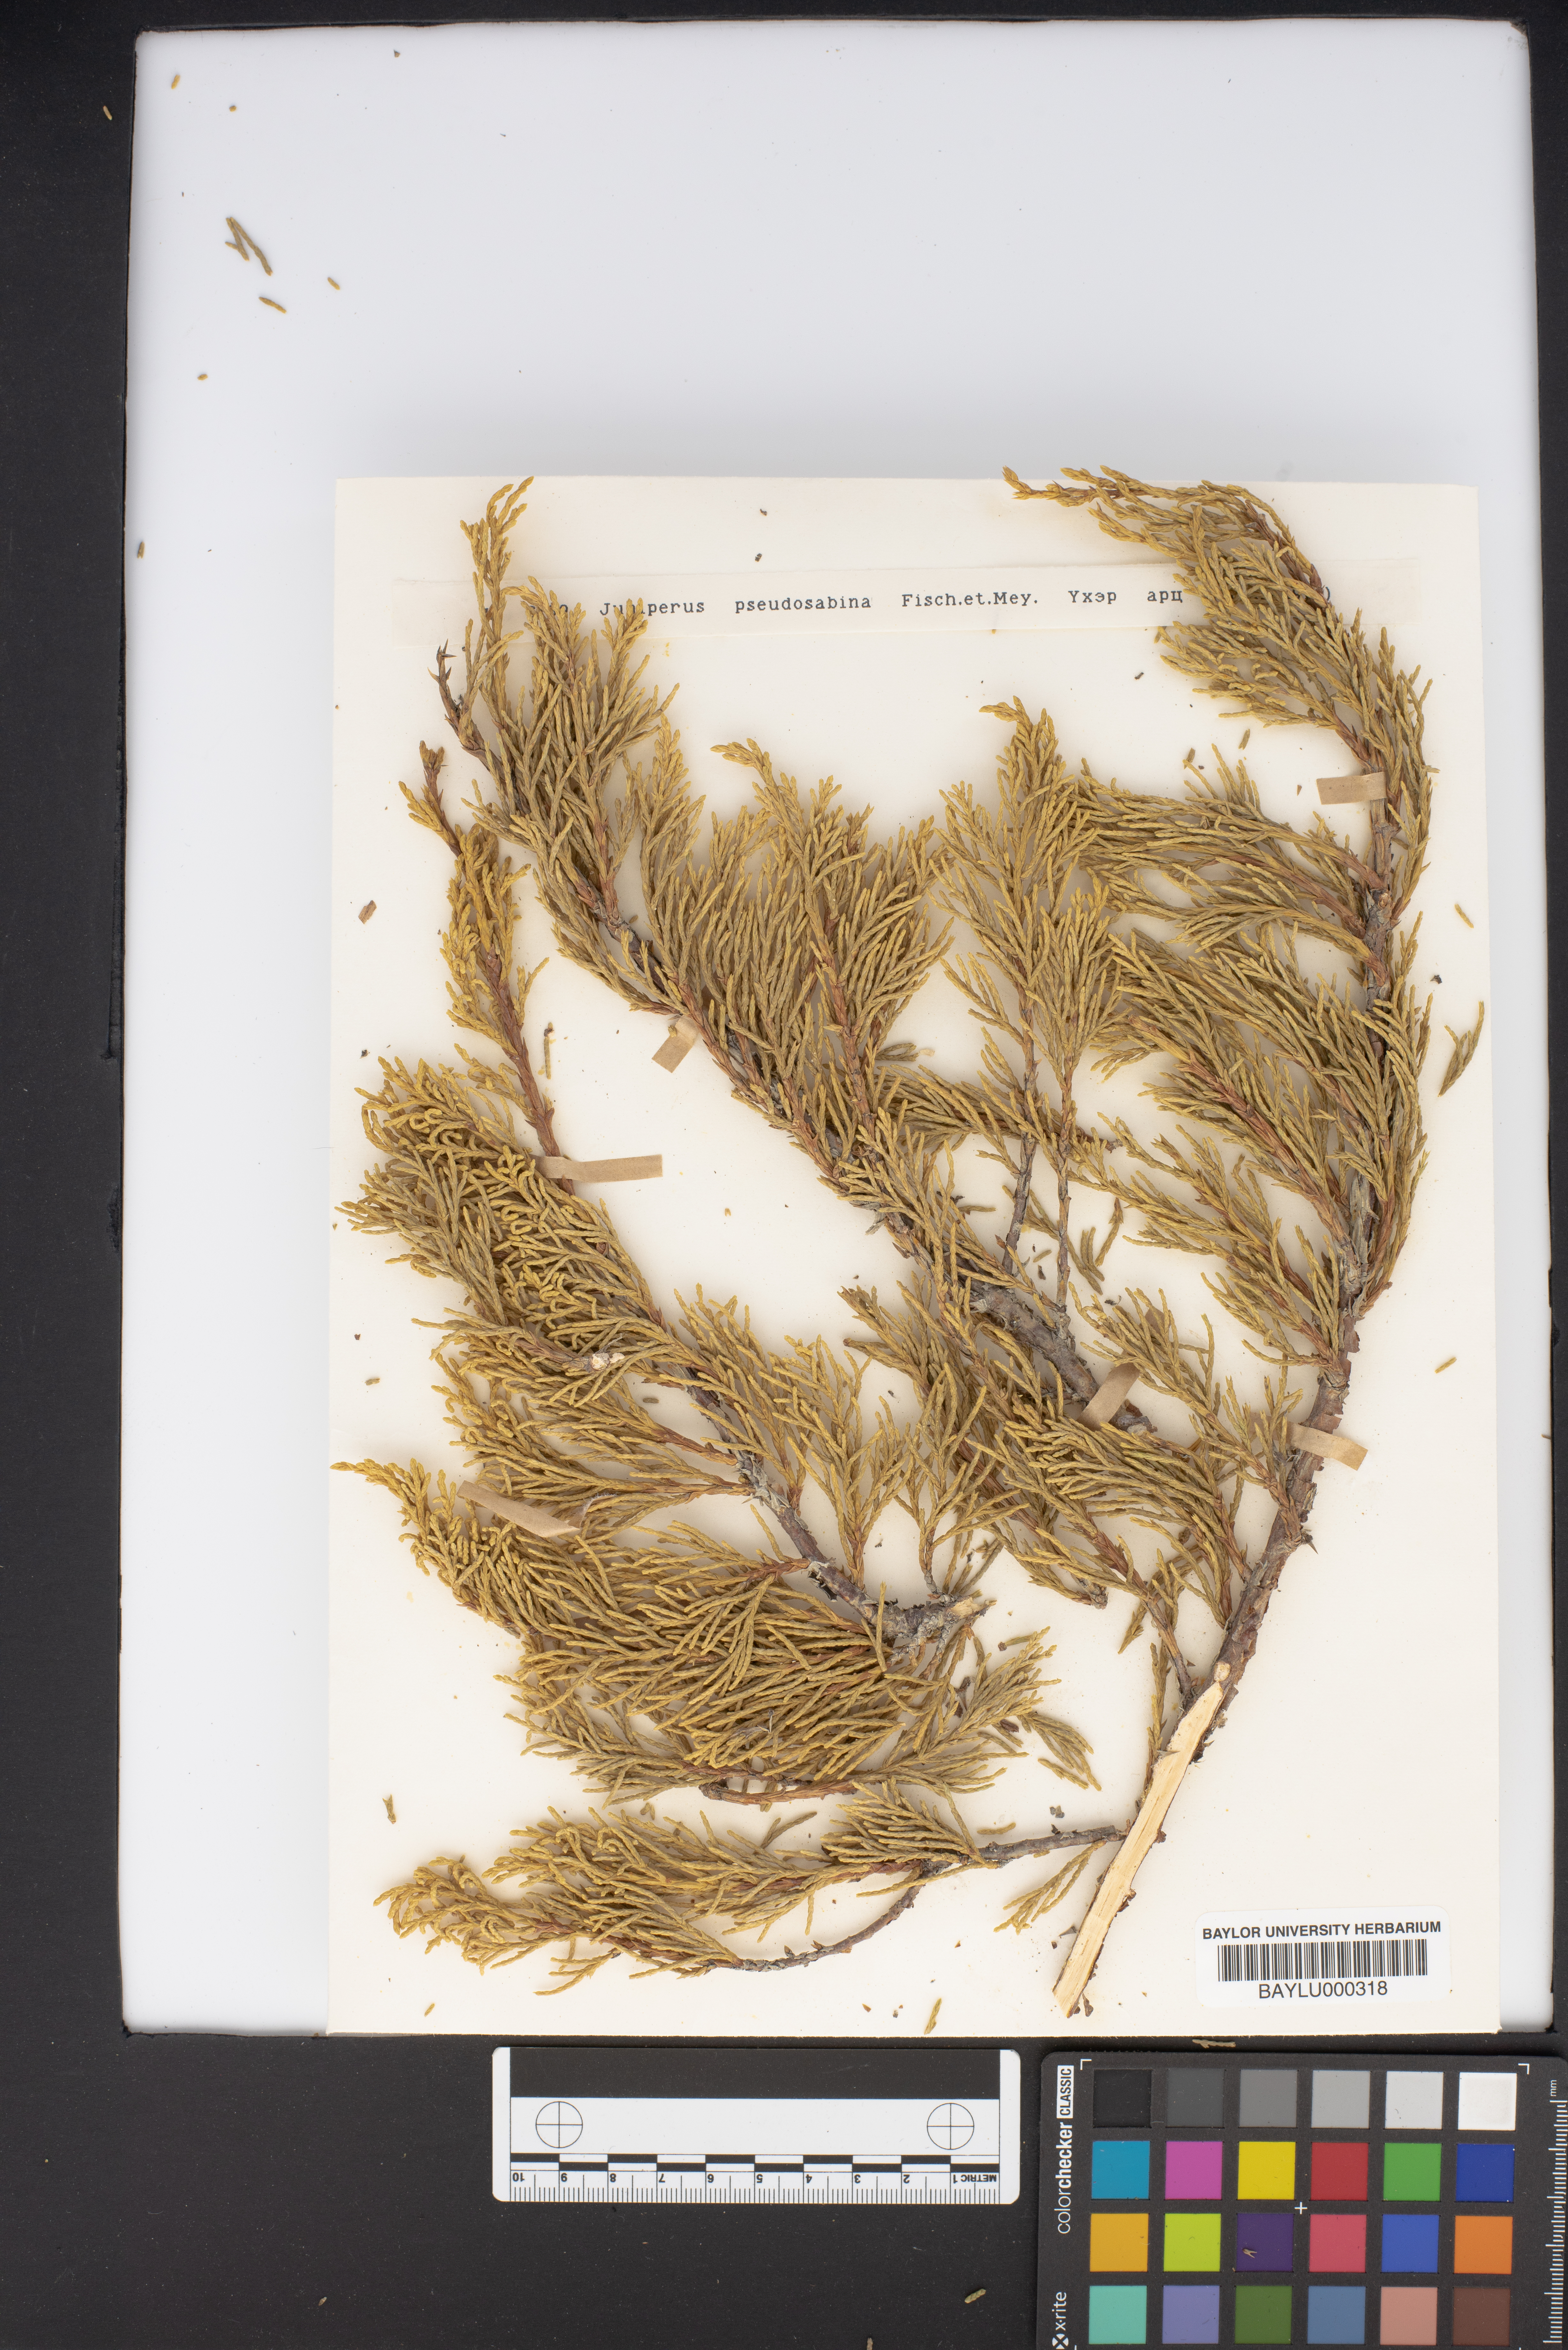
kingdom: Plantae
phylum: Tracheophyta
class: Pinopsida
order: Pinales
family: Cupressaceae
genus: Juniperus
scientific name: Juniperus pseudosabina
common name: Turkestan juniper
